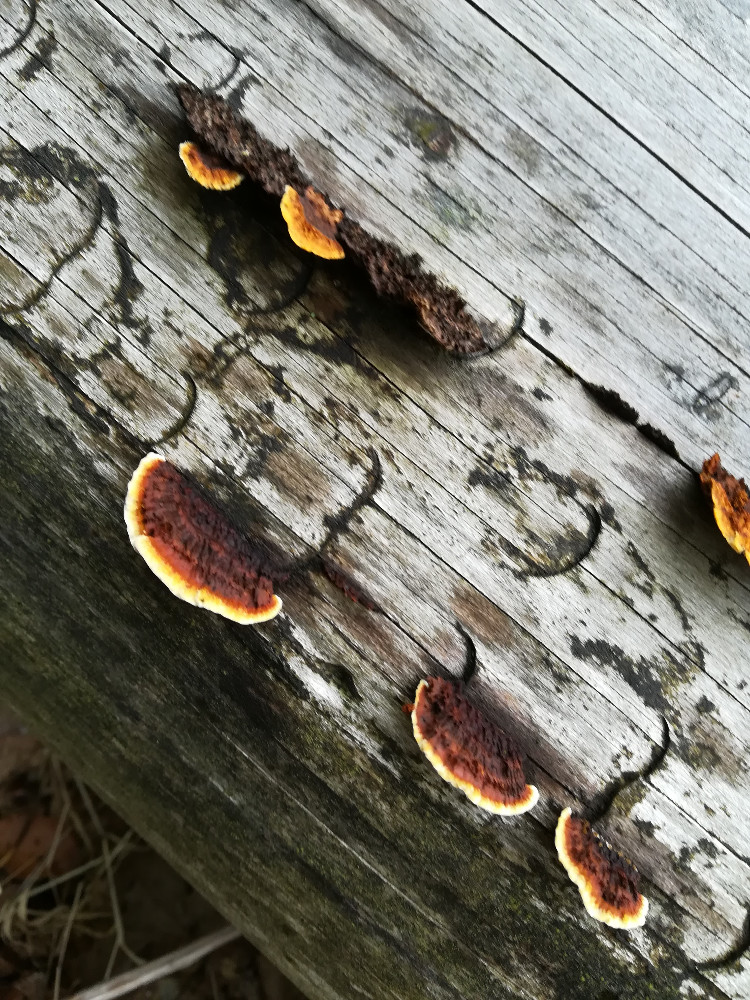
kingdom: Fungi
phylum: Basidiomycota
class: Agaricomycetes
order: Gloeophyllales
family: Gloeophyllaceae
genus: Gloeophyllum
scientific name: Gloeophyllum sepiarium
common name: fyrre-korkhat
